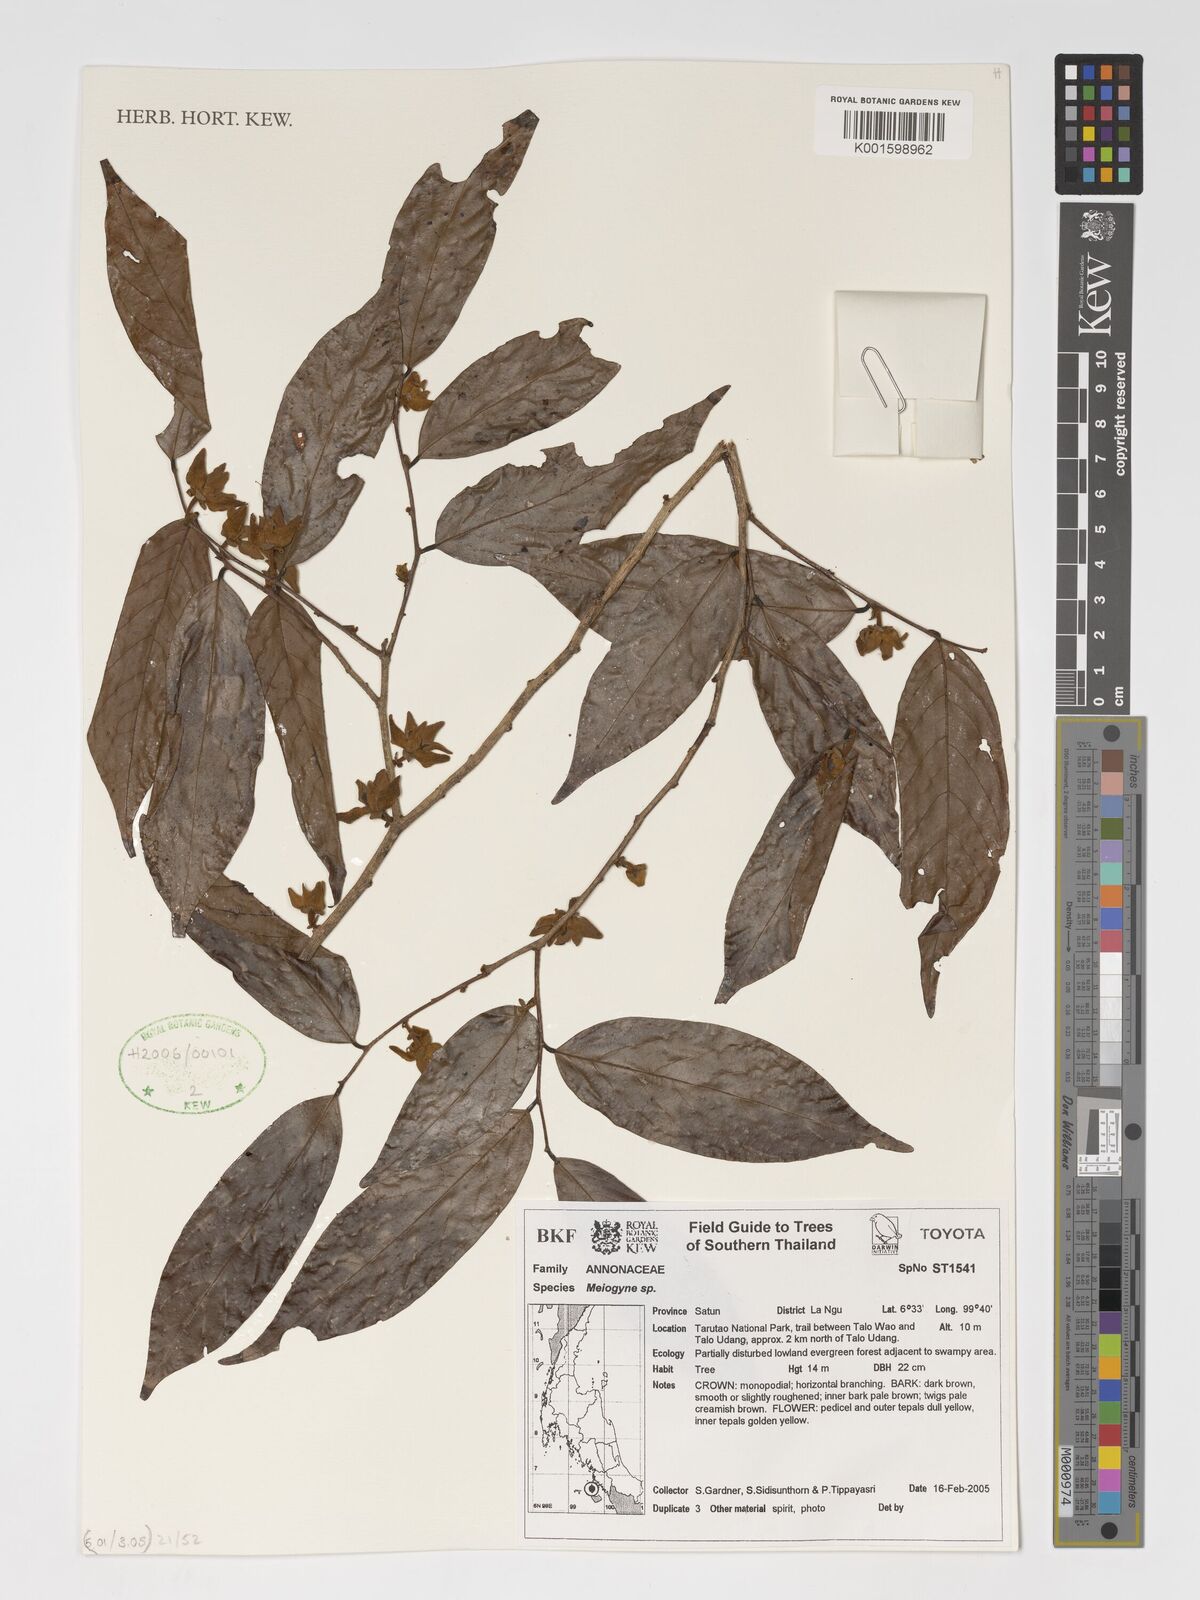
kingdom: Plantae
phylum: Tracheophyta
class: Magnoliopsida
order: Magnoliales
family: Annonaceae
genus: Meiogyne
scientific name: Meiogyne
